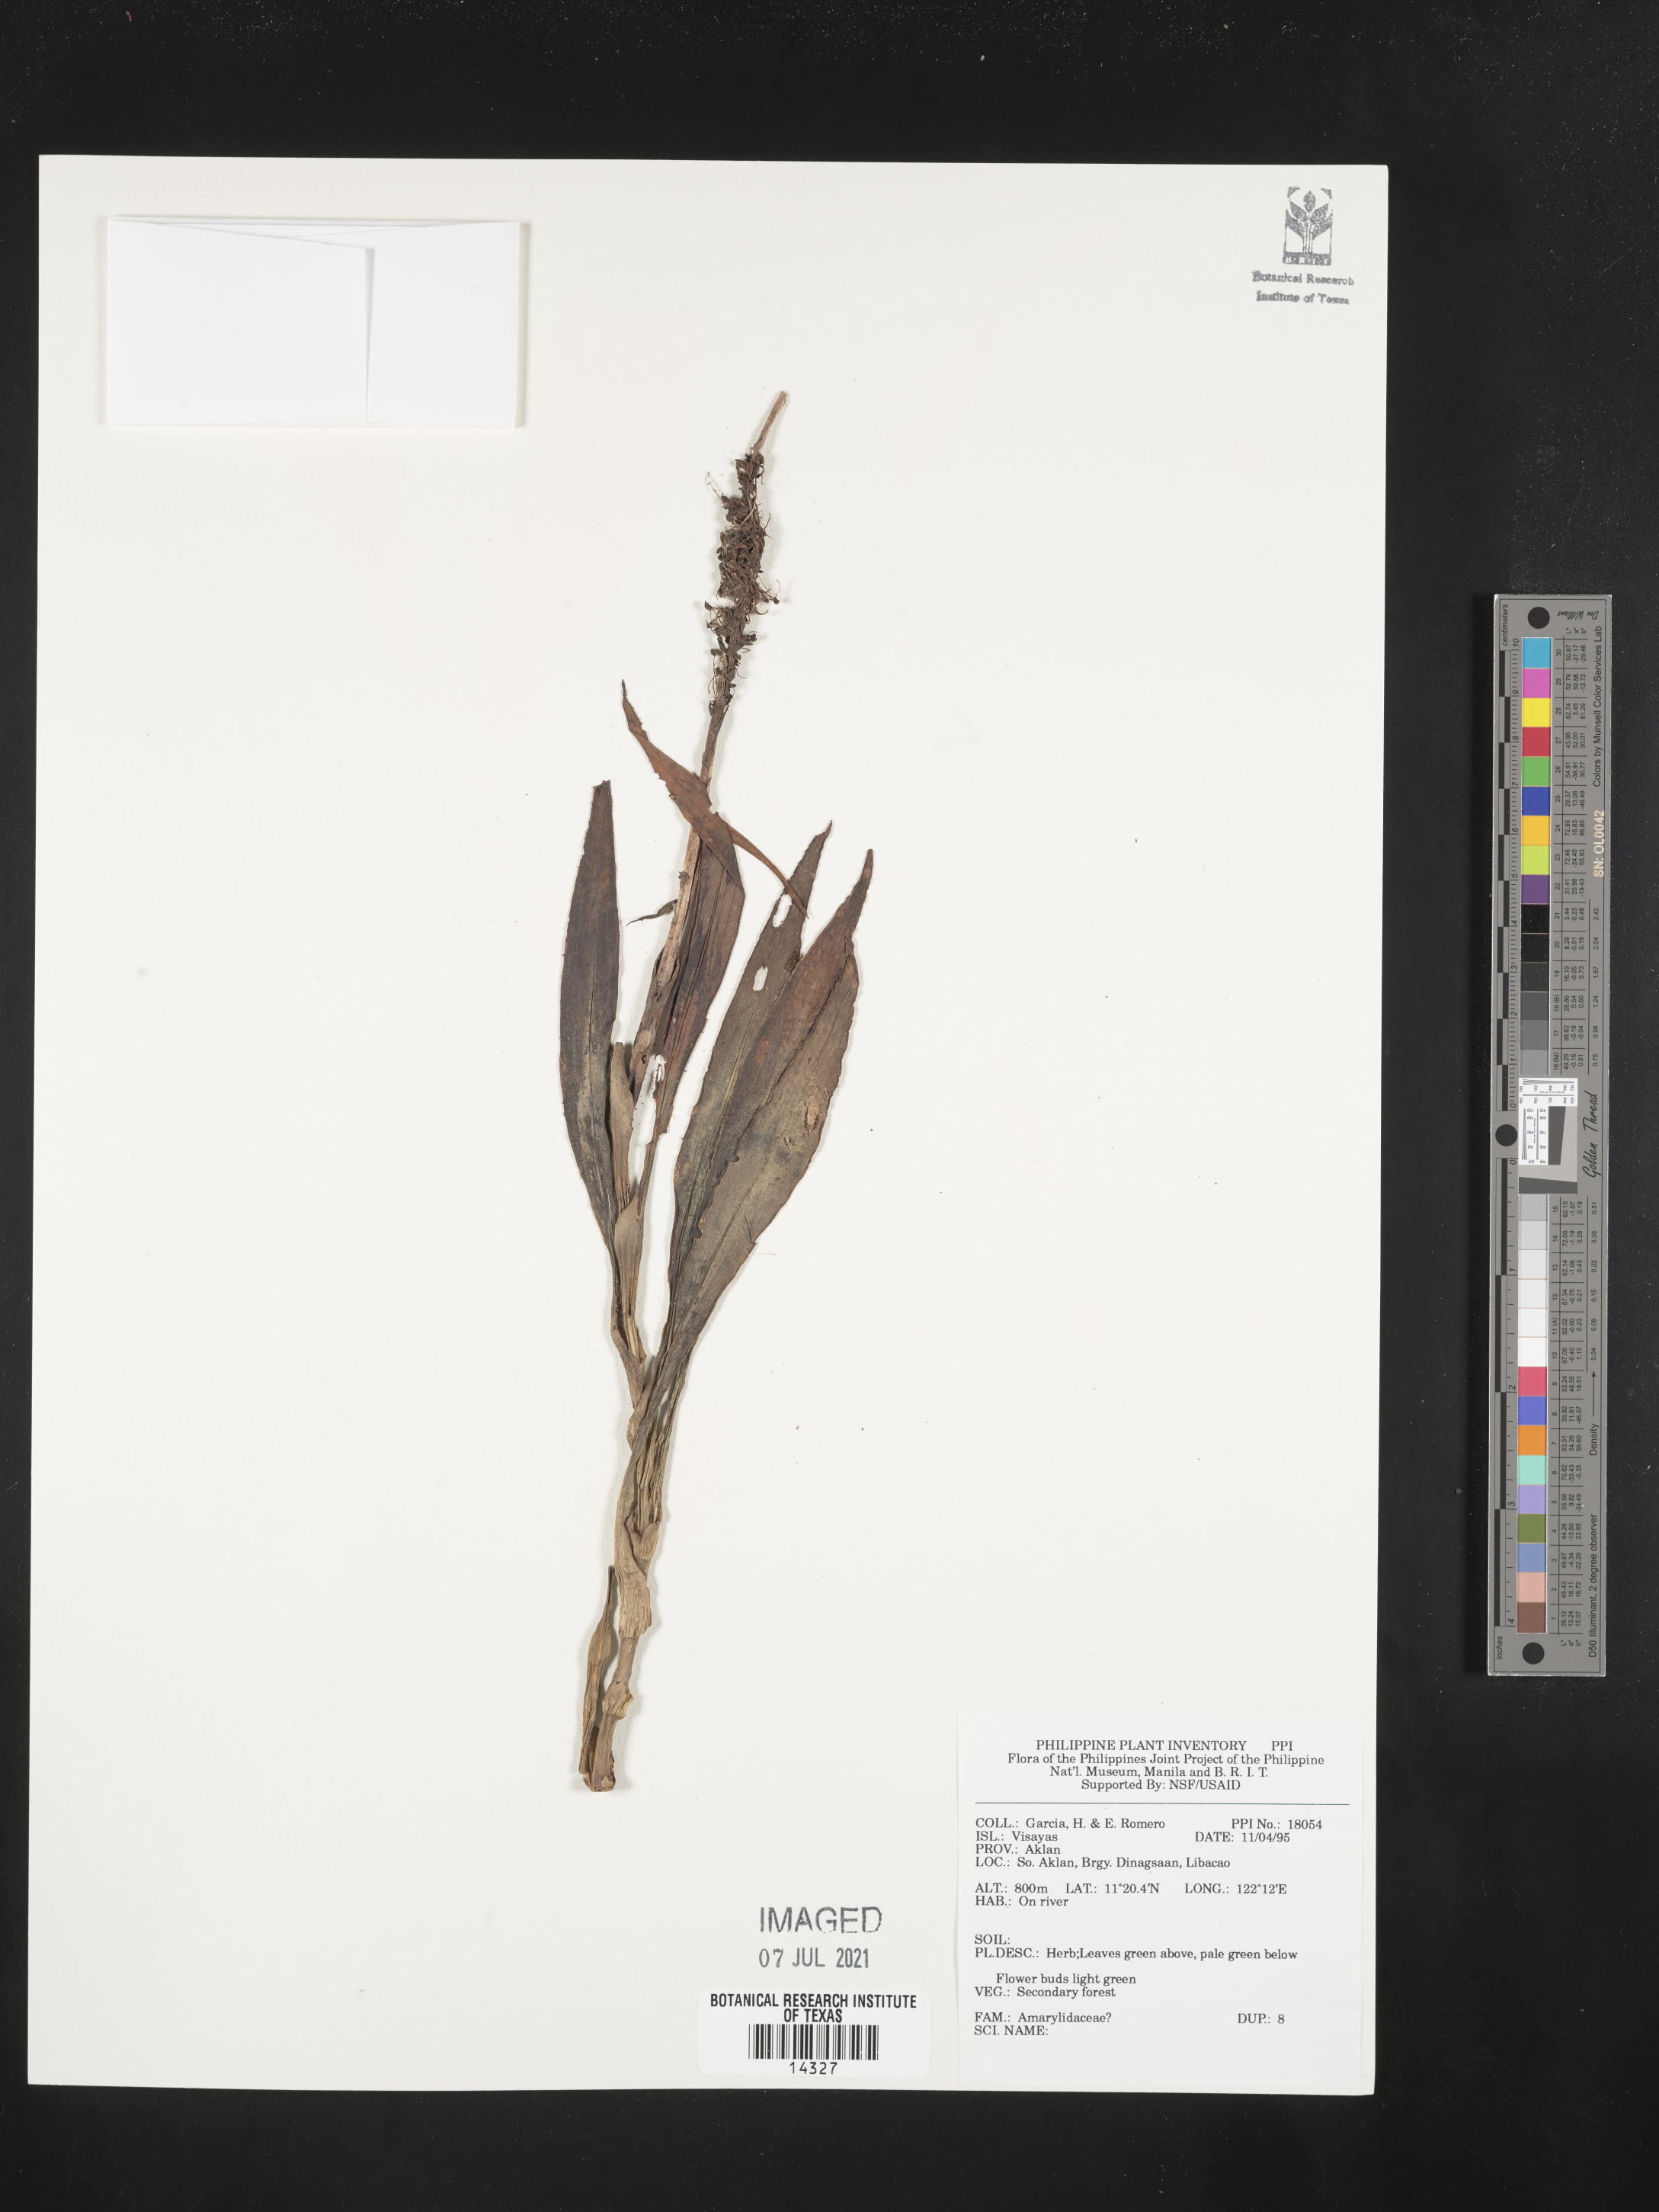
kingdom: Plantae
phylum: Tracheophyta
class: Liliopsida
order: Asparagales
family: Amaryllidaceae
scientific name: Amaryllidaceae
